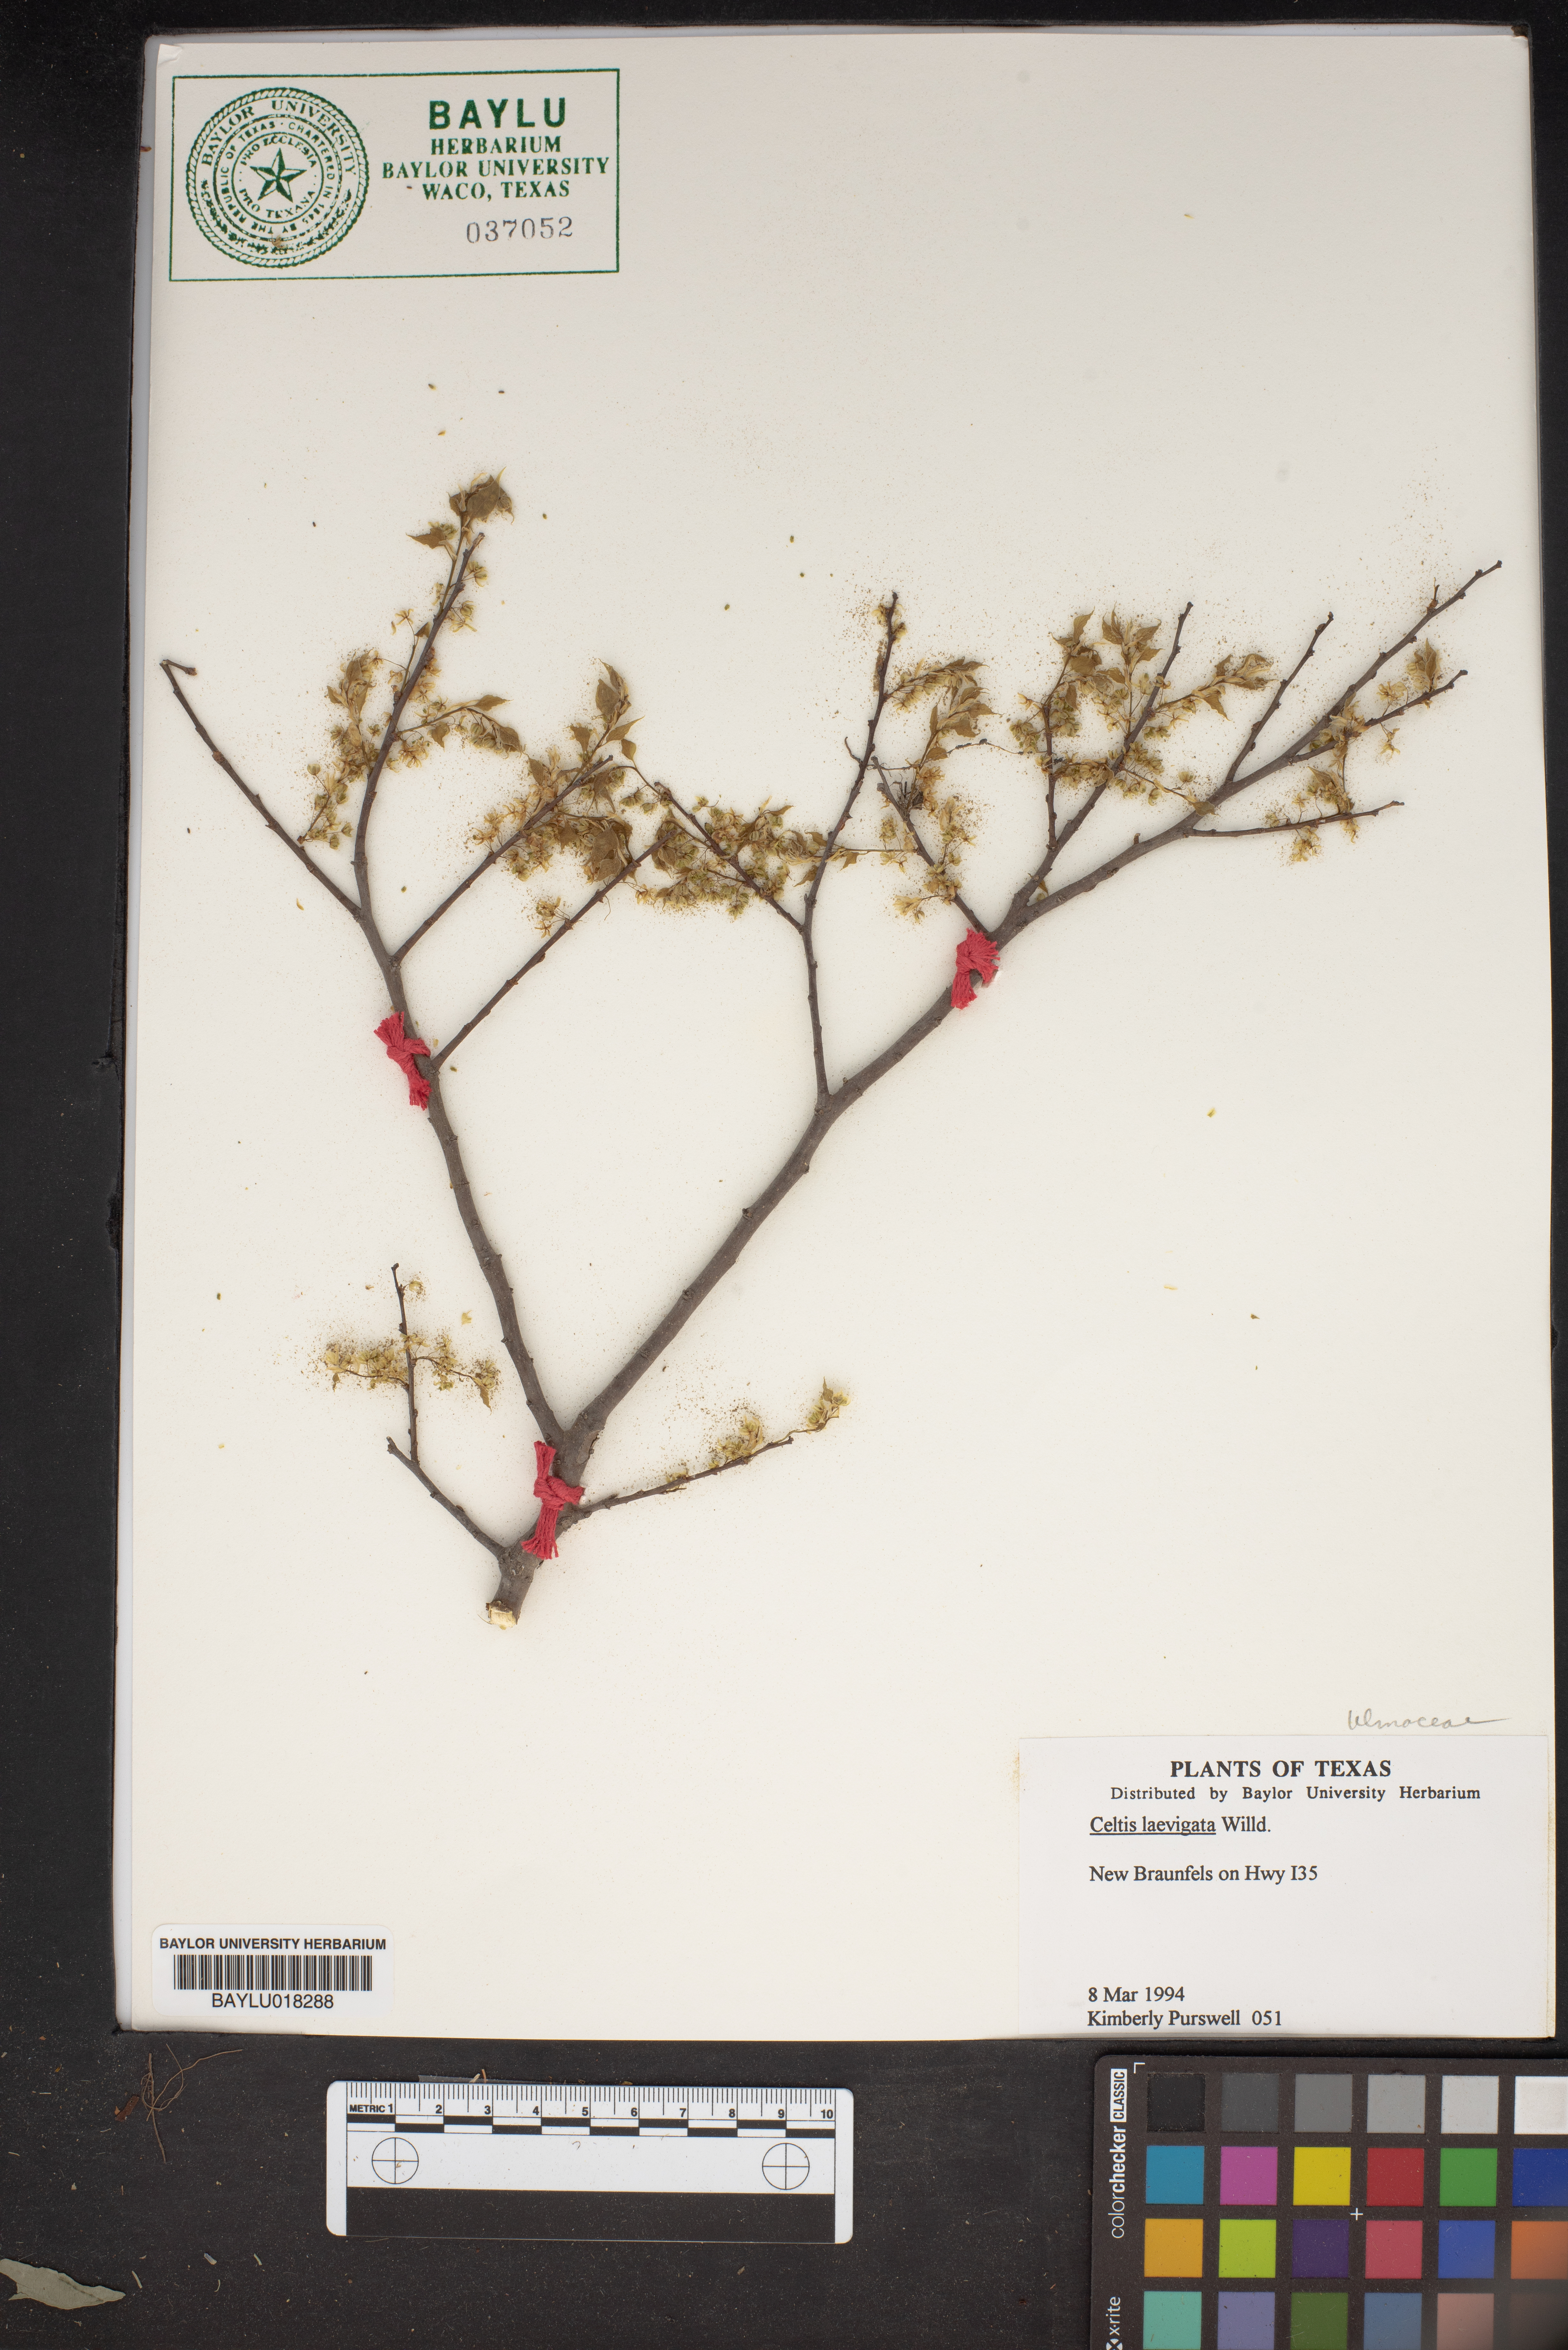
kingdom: Plantae
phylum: Tracheophyta
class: Magnoliopsida
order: Rosales
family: Cannabaceae
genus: Celtis
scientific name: Celtis laevigata
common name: Sugarberry
